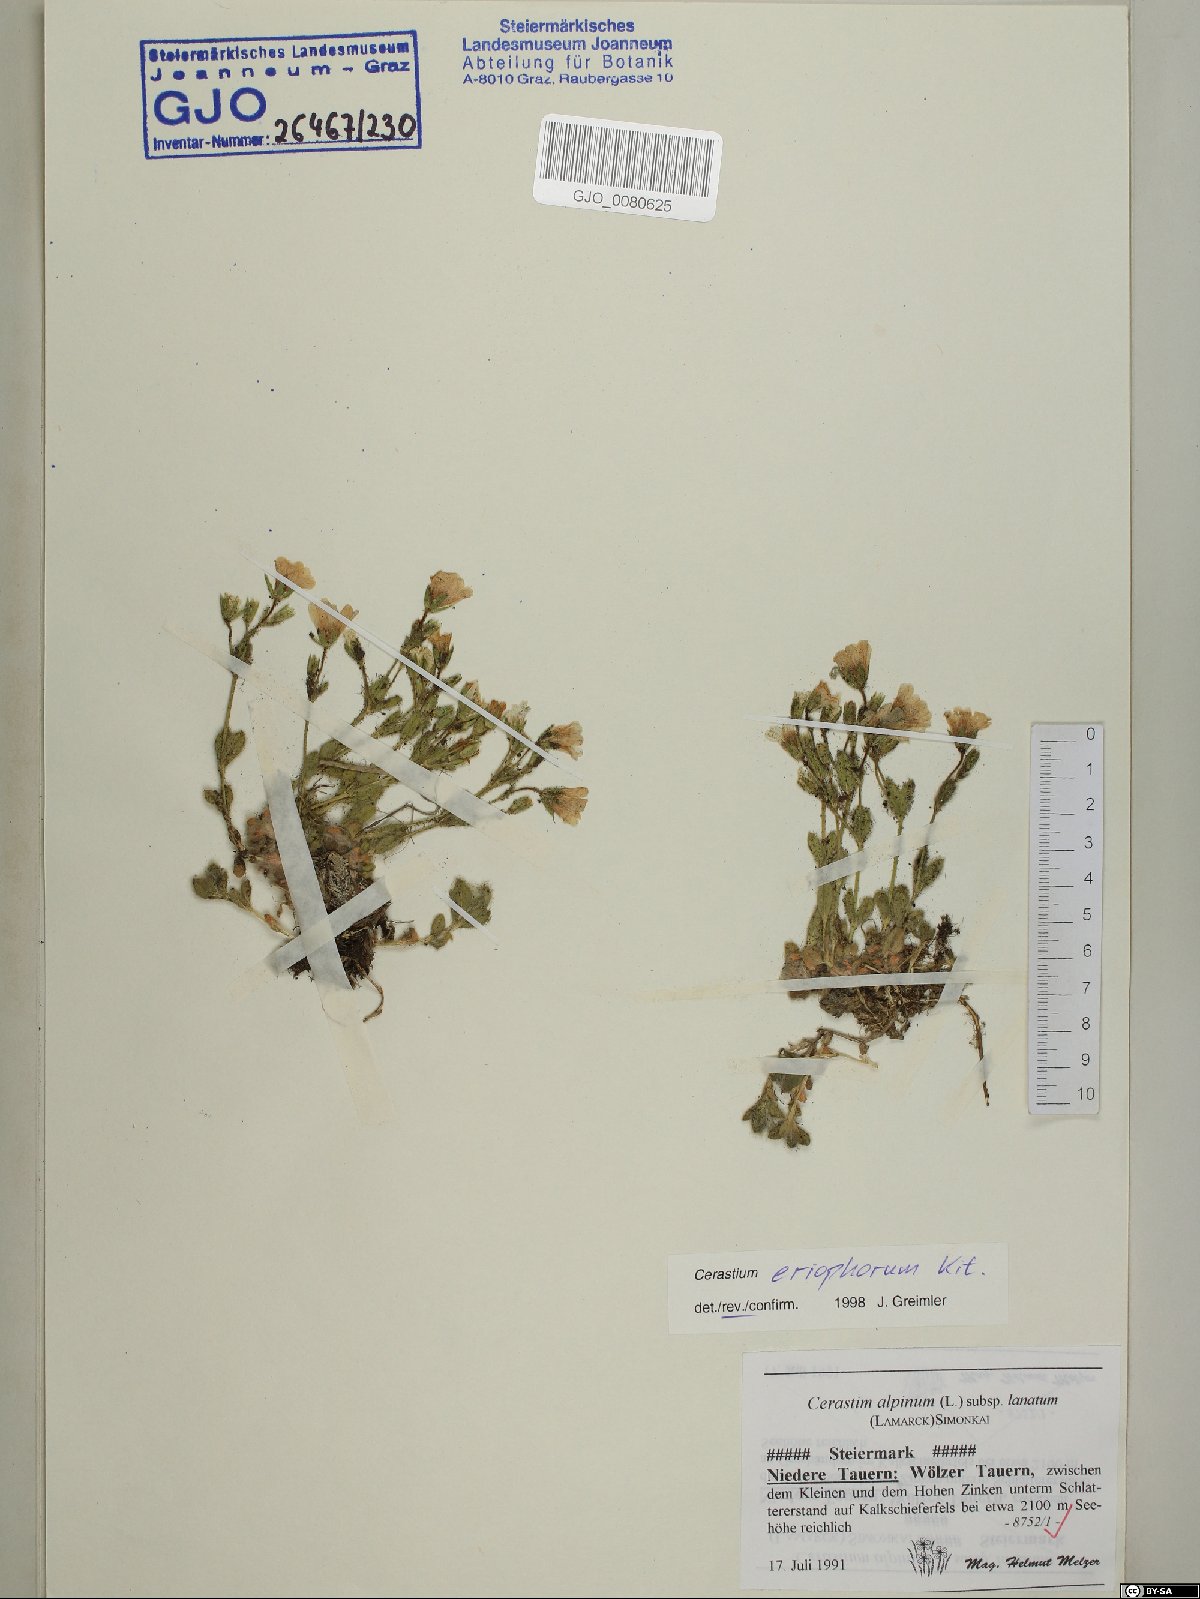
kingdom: Plantae
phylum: Tracheophyta
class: Magnoliopsida
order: Caryophyllales
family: Caryophyllaceae
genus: Cerastium
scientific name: Cerastium eriophorum
